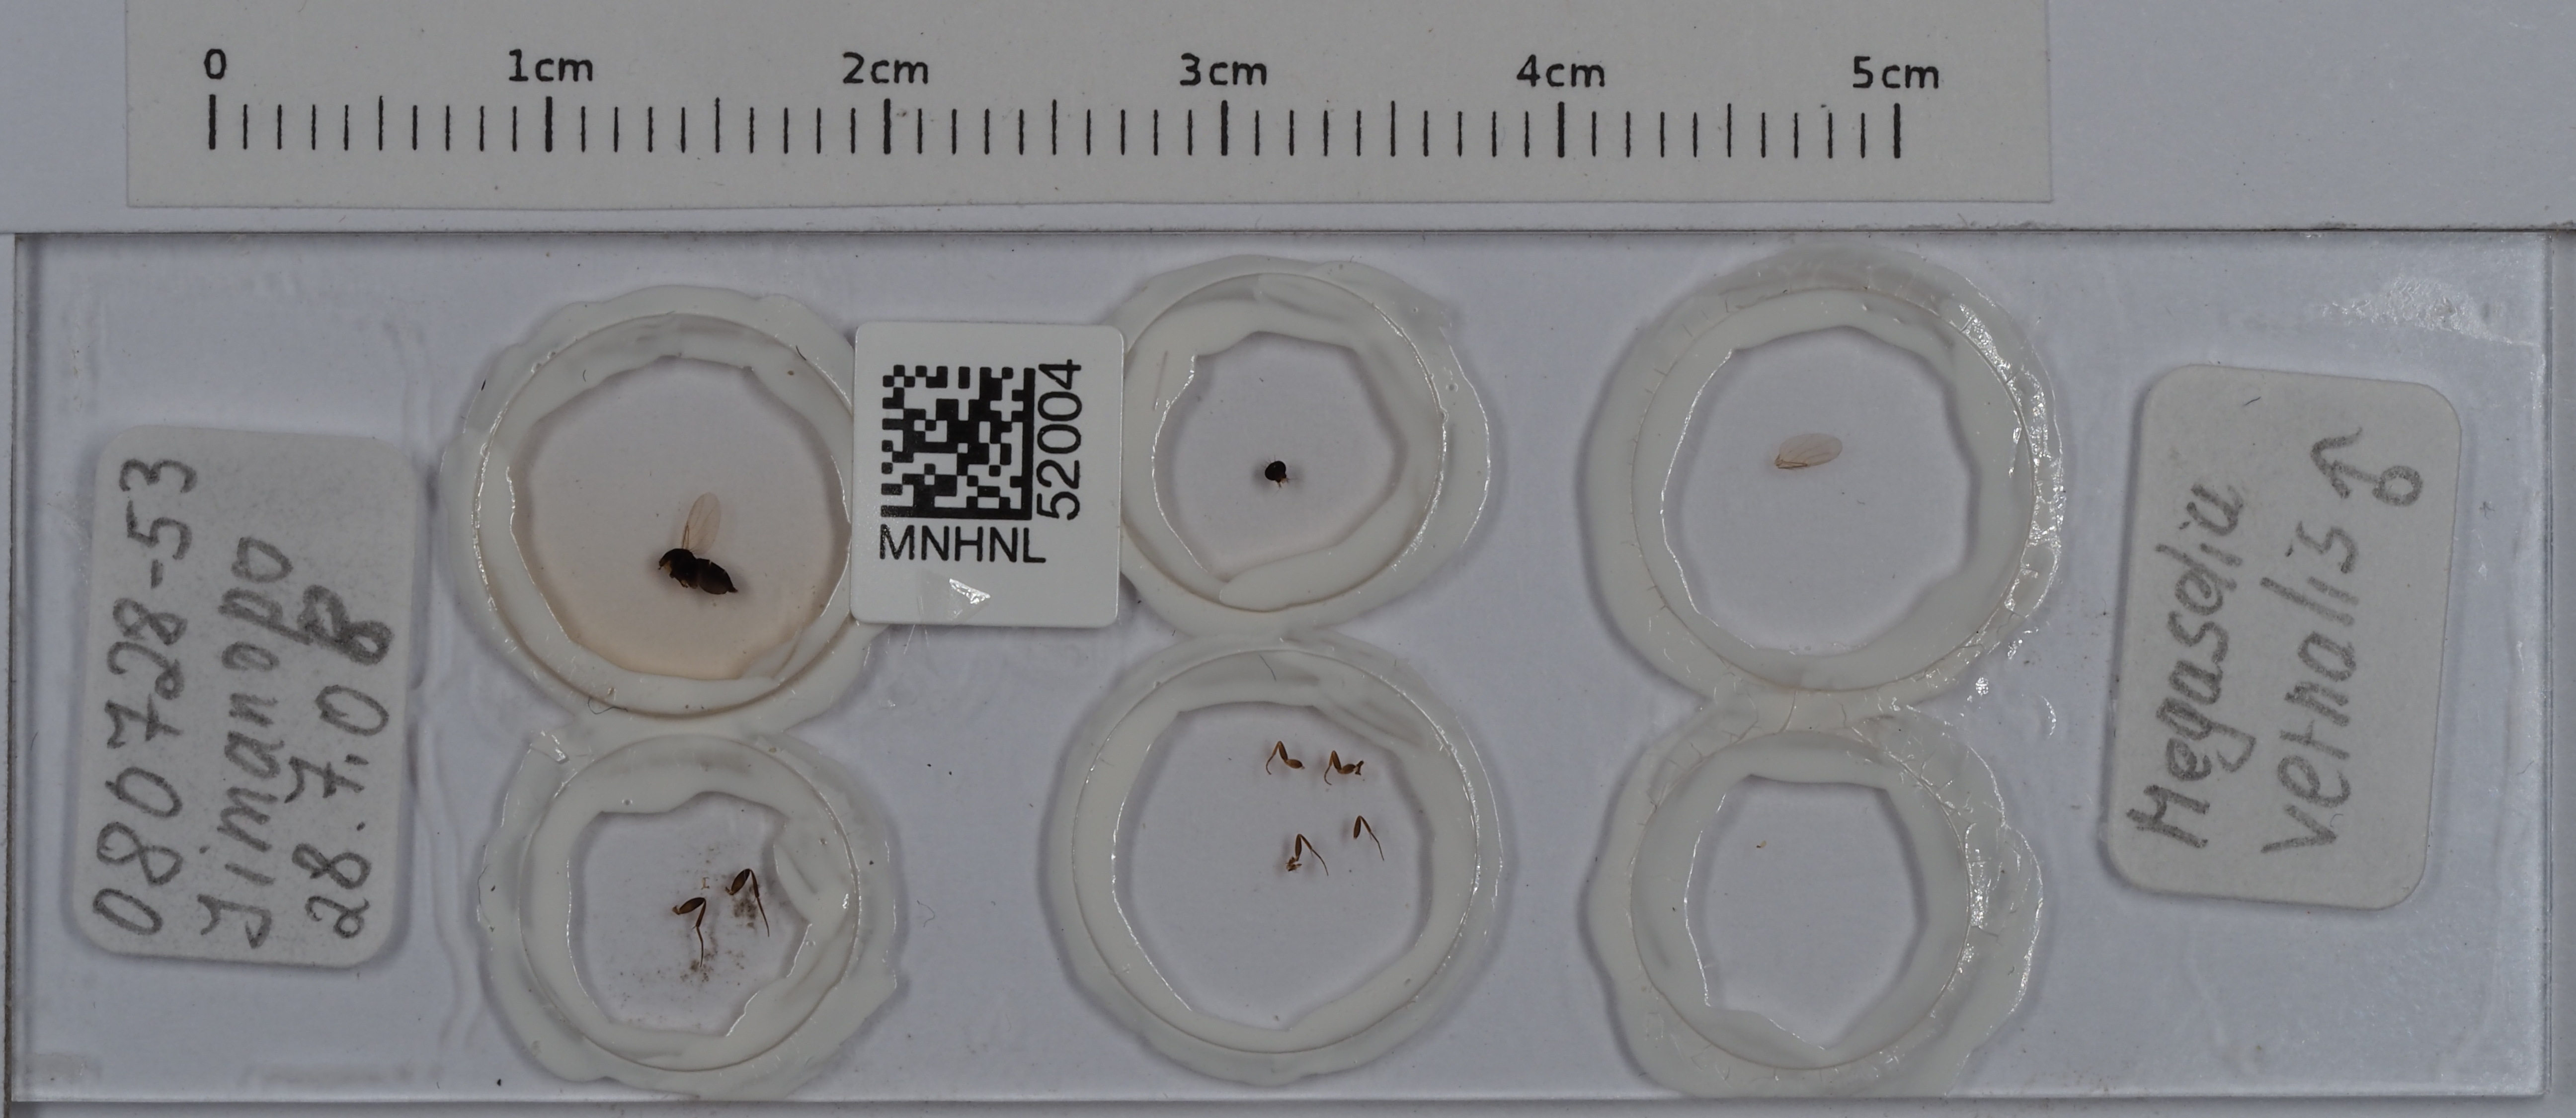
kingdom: Animalia
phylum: Arthropoda
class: Insecta
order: Diptera
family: Phoridae
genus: Megaselia
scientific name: Megaselia vernalis
